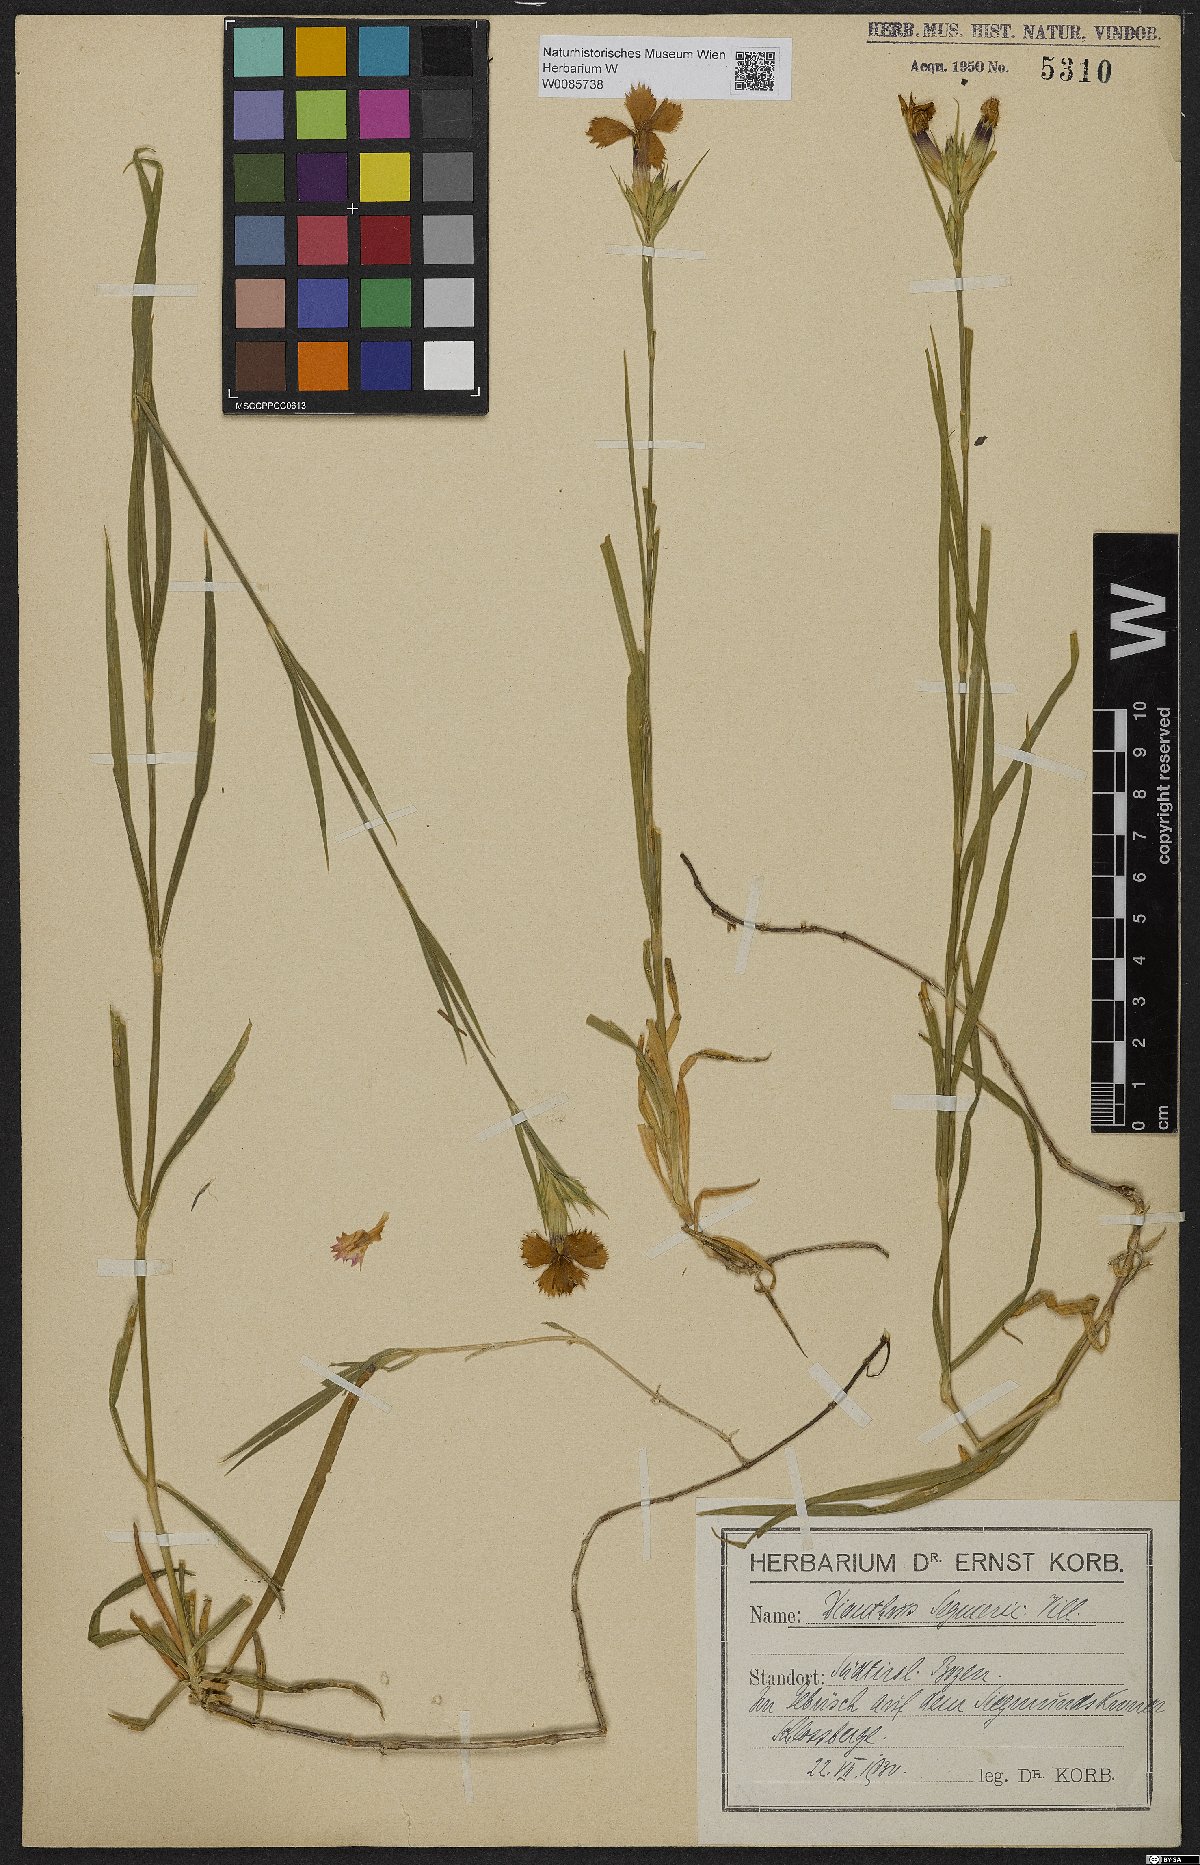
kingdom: Plantae
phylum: Tracheophyta
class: Magnoliopsida
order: Caryophyllales
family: Caryophyllaceae
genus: Dianthus
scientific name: Dianthus seguieri
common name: Ragged pink
